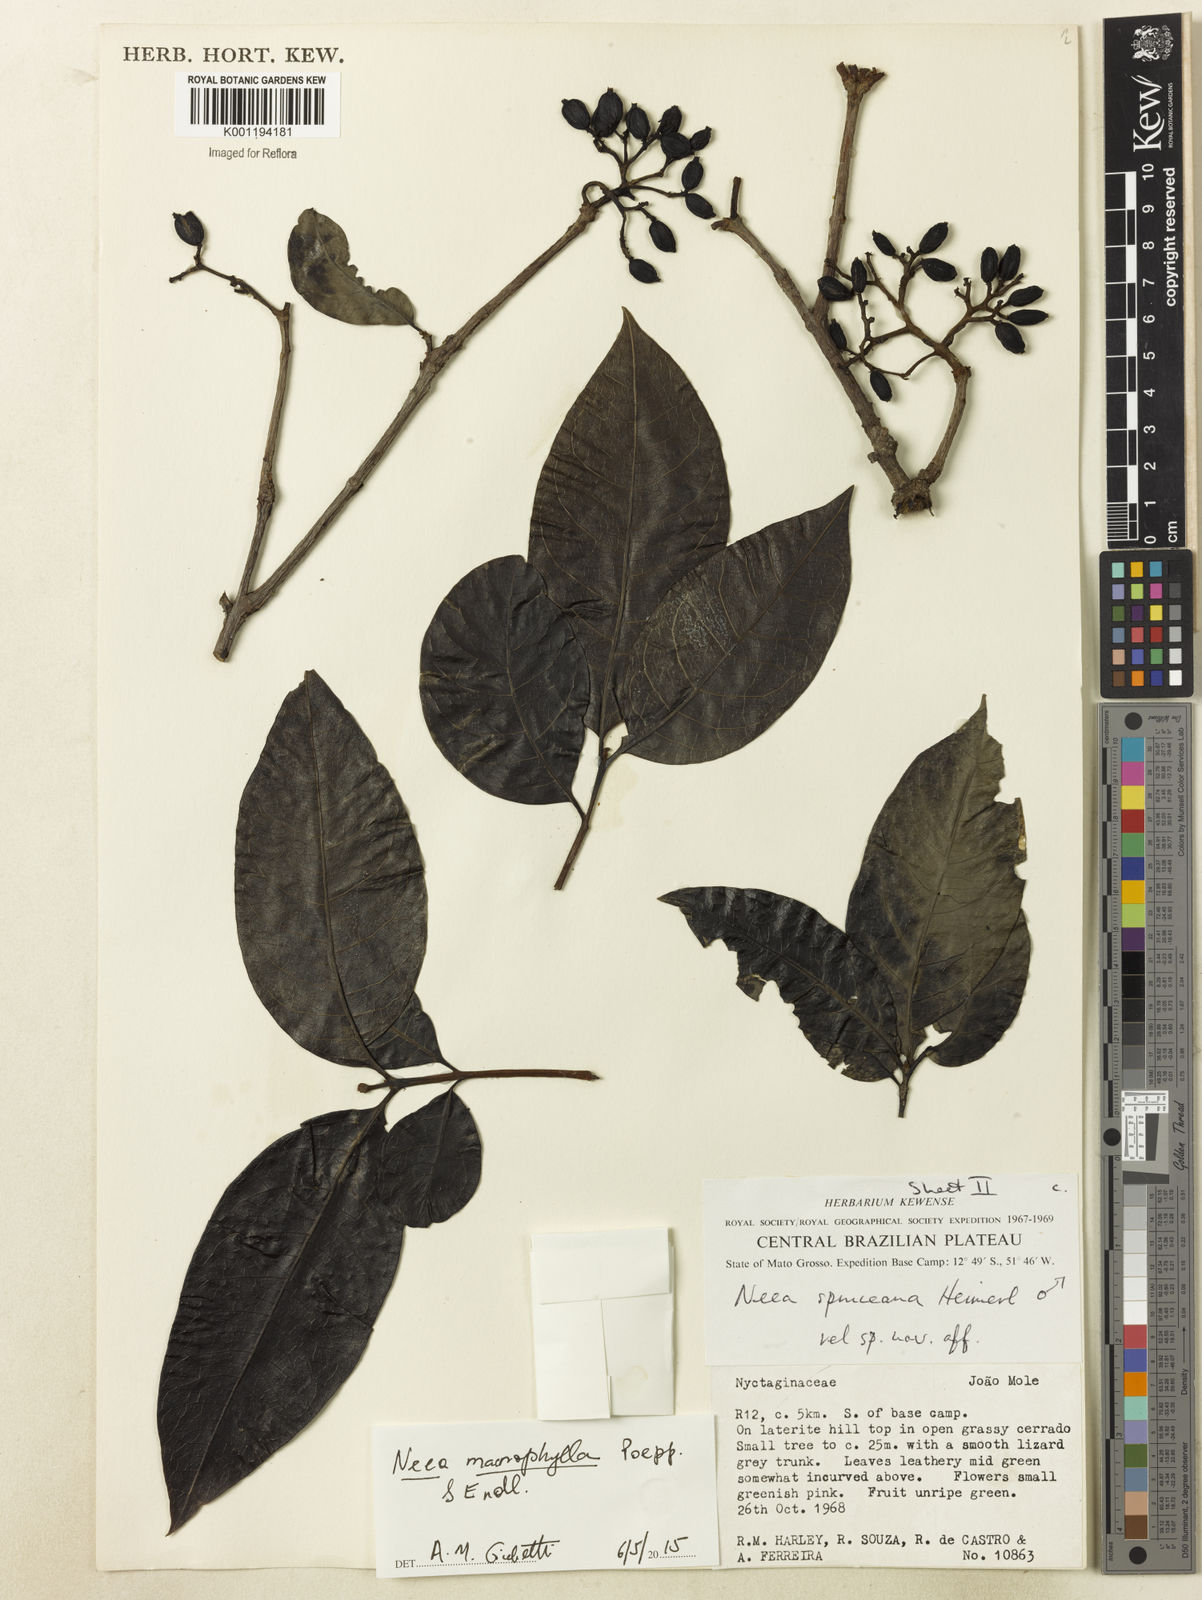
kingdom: Plantae
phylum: Tracheophyta
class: Magnoliopsida
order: Caryophyllales
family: Nyctaginaceae
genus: Neea
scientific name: Neea macrophylla
